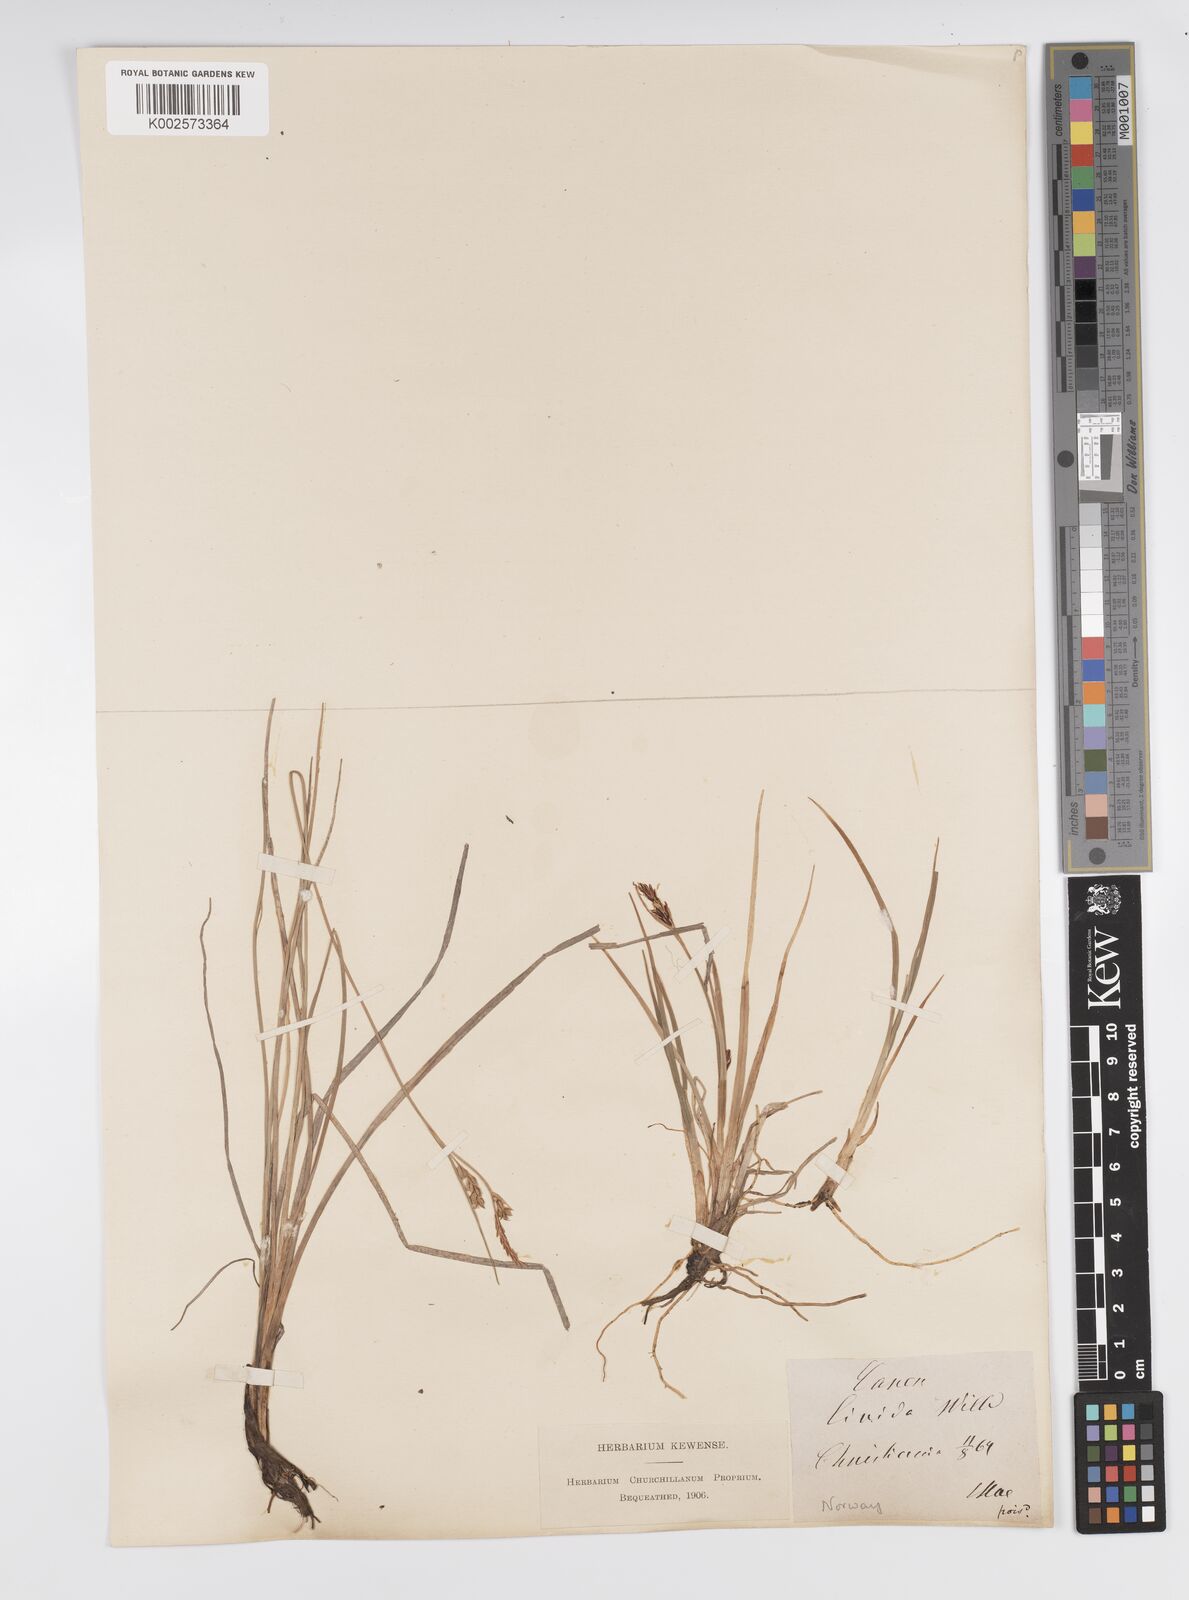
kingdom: Plantae
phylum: Tracheophyta
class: Liliopsida
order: Poales
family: Cyperaceae
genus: Carex
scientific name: Carex livida
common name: Livid sedge
